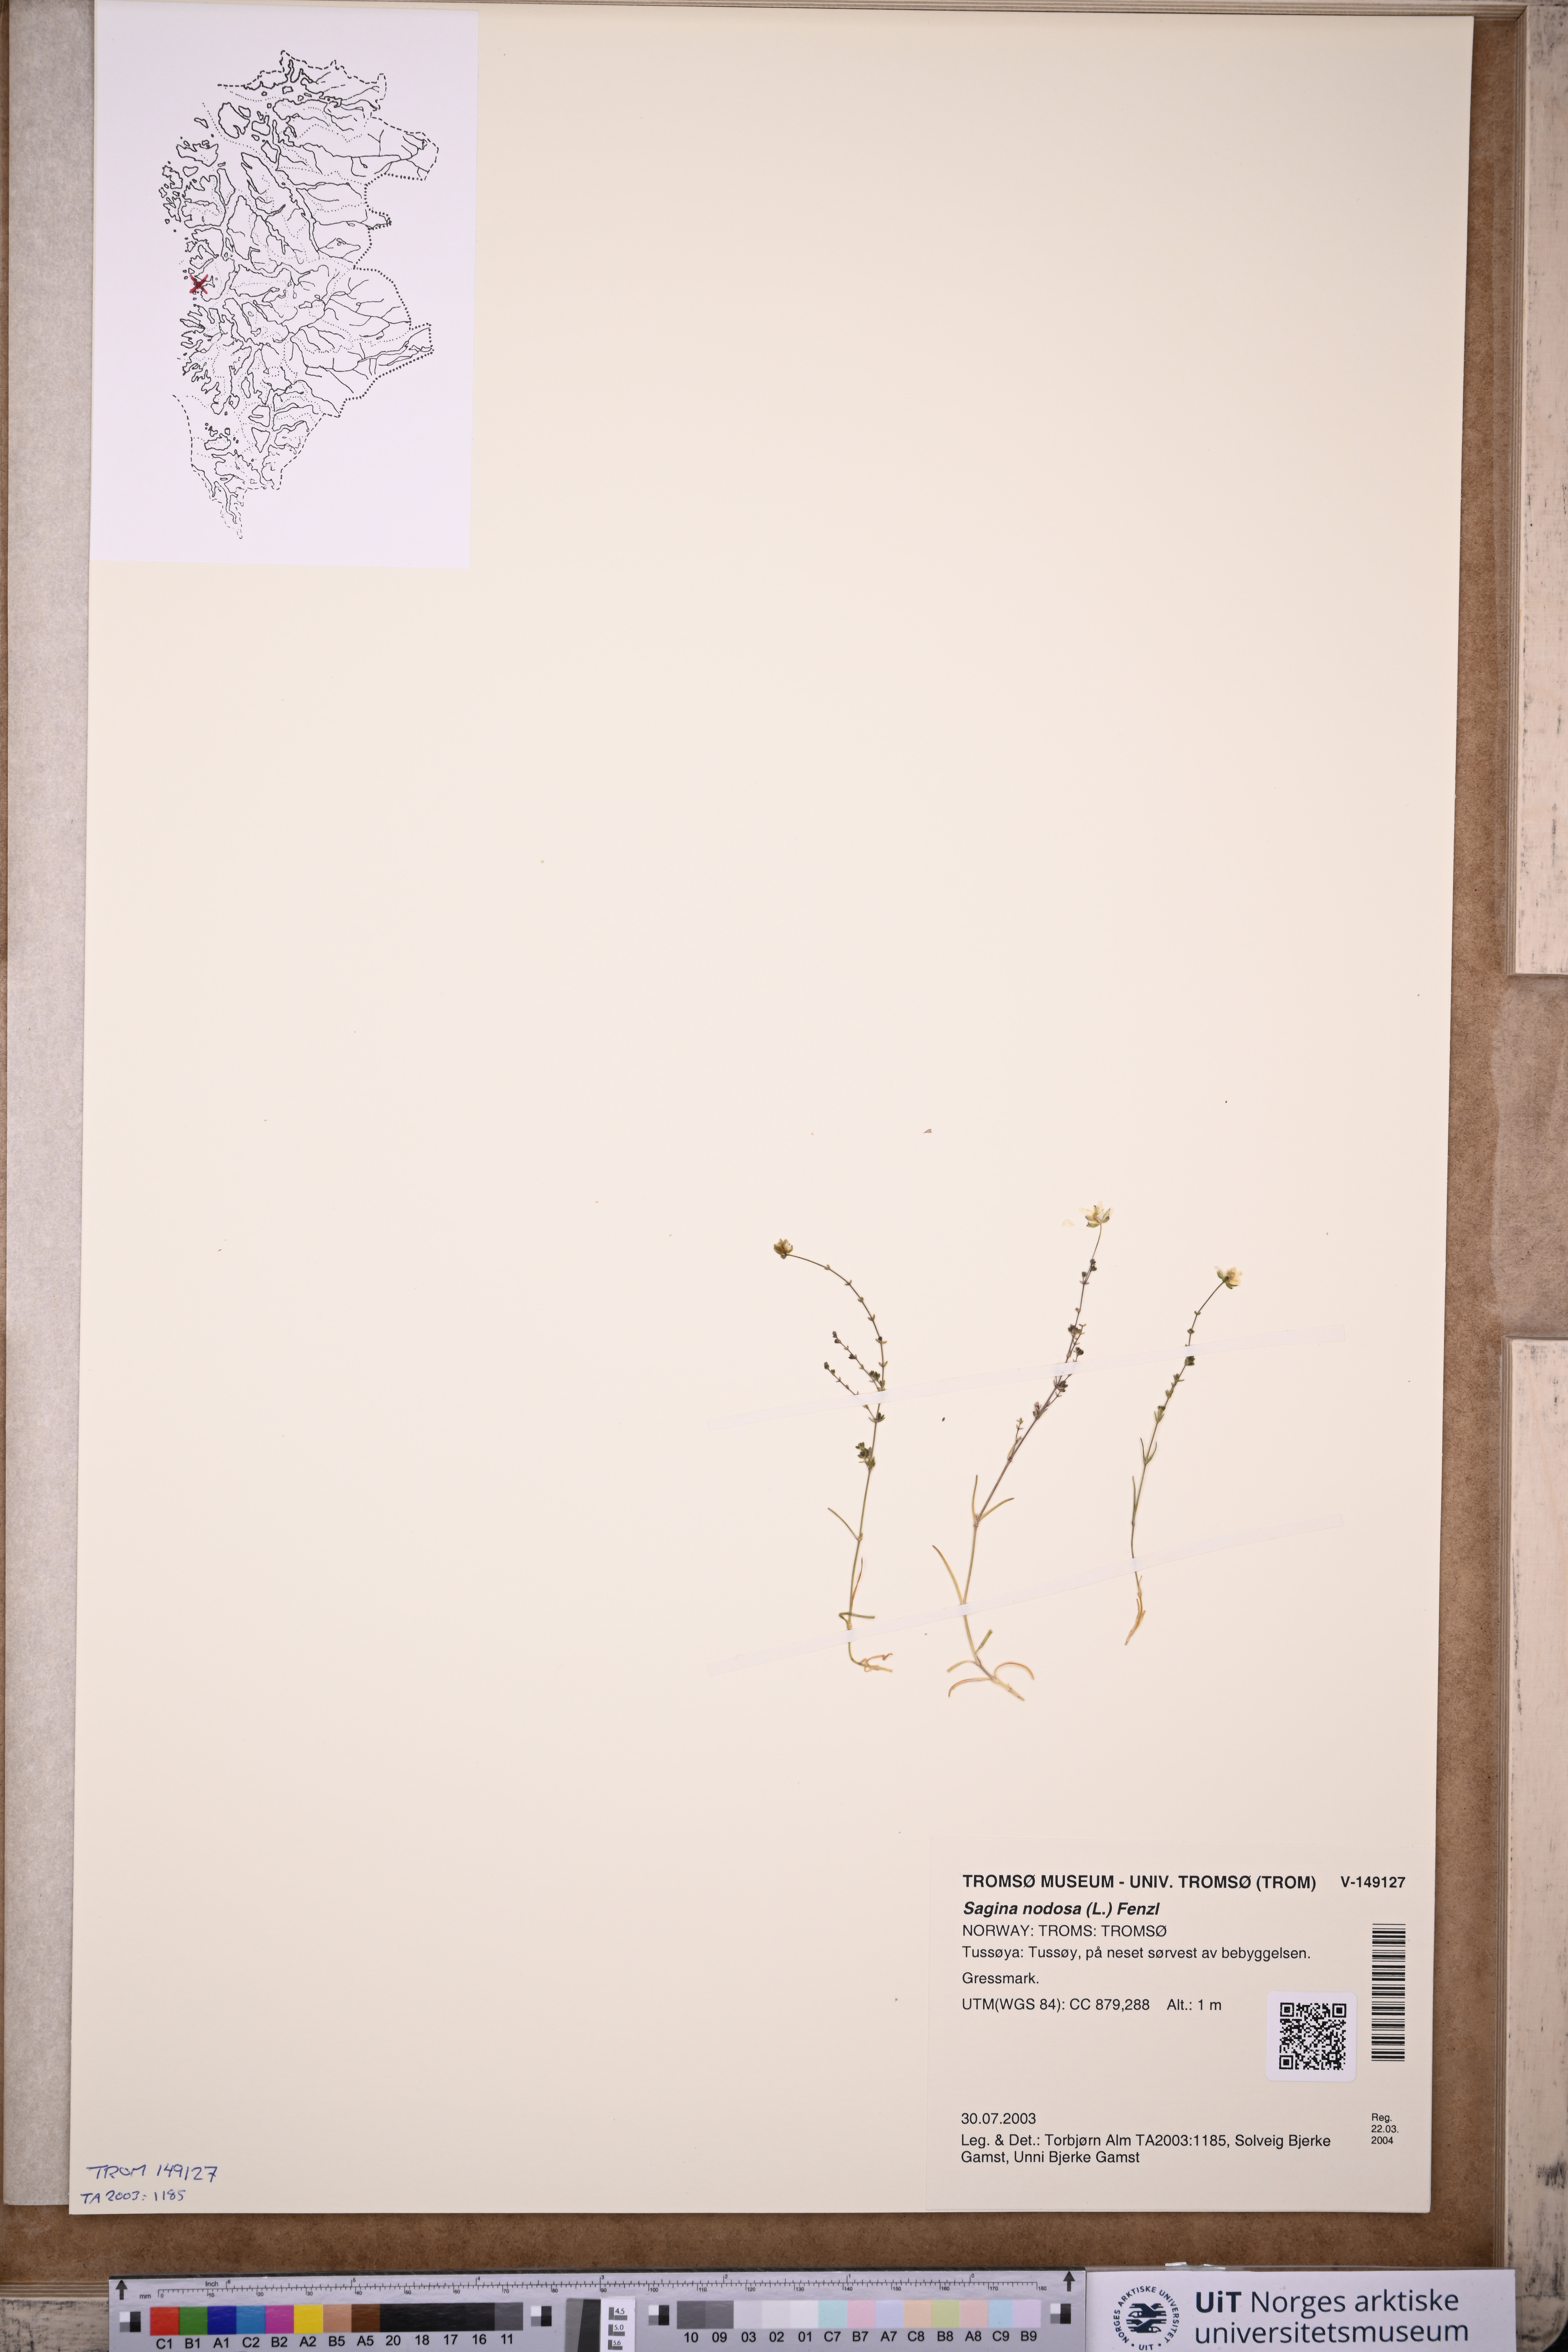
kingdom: Plantae
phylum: Tracheophyta
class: Magnoliopsida
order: Caryophyllales
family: Caryophyllaceae
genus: Sagina
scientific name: Sagina nodosa
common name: Knotted pearlwort
